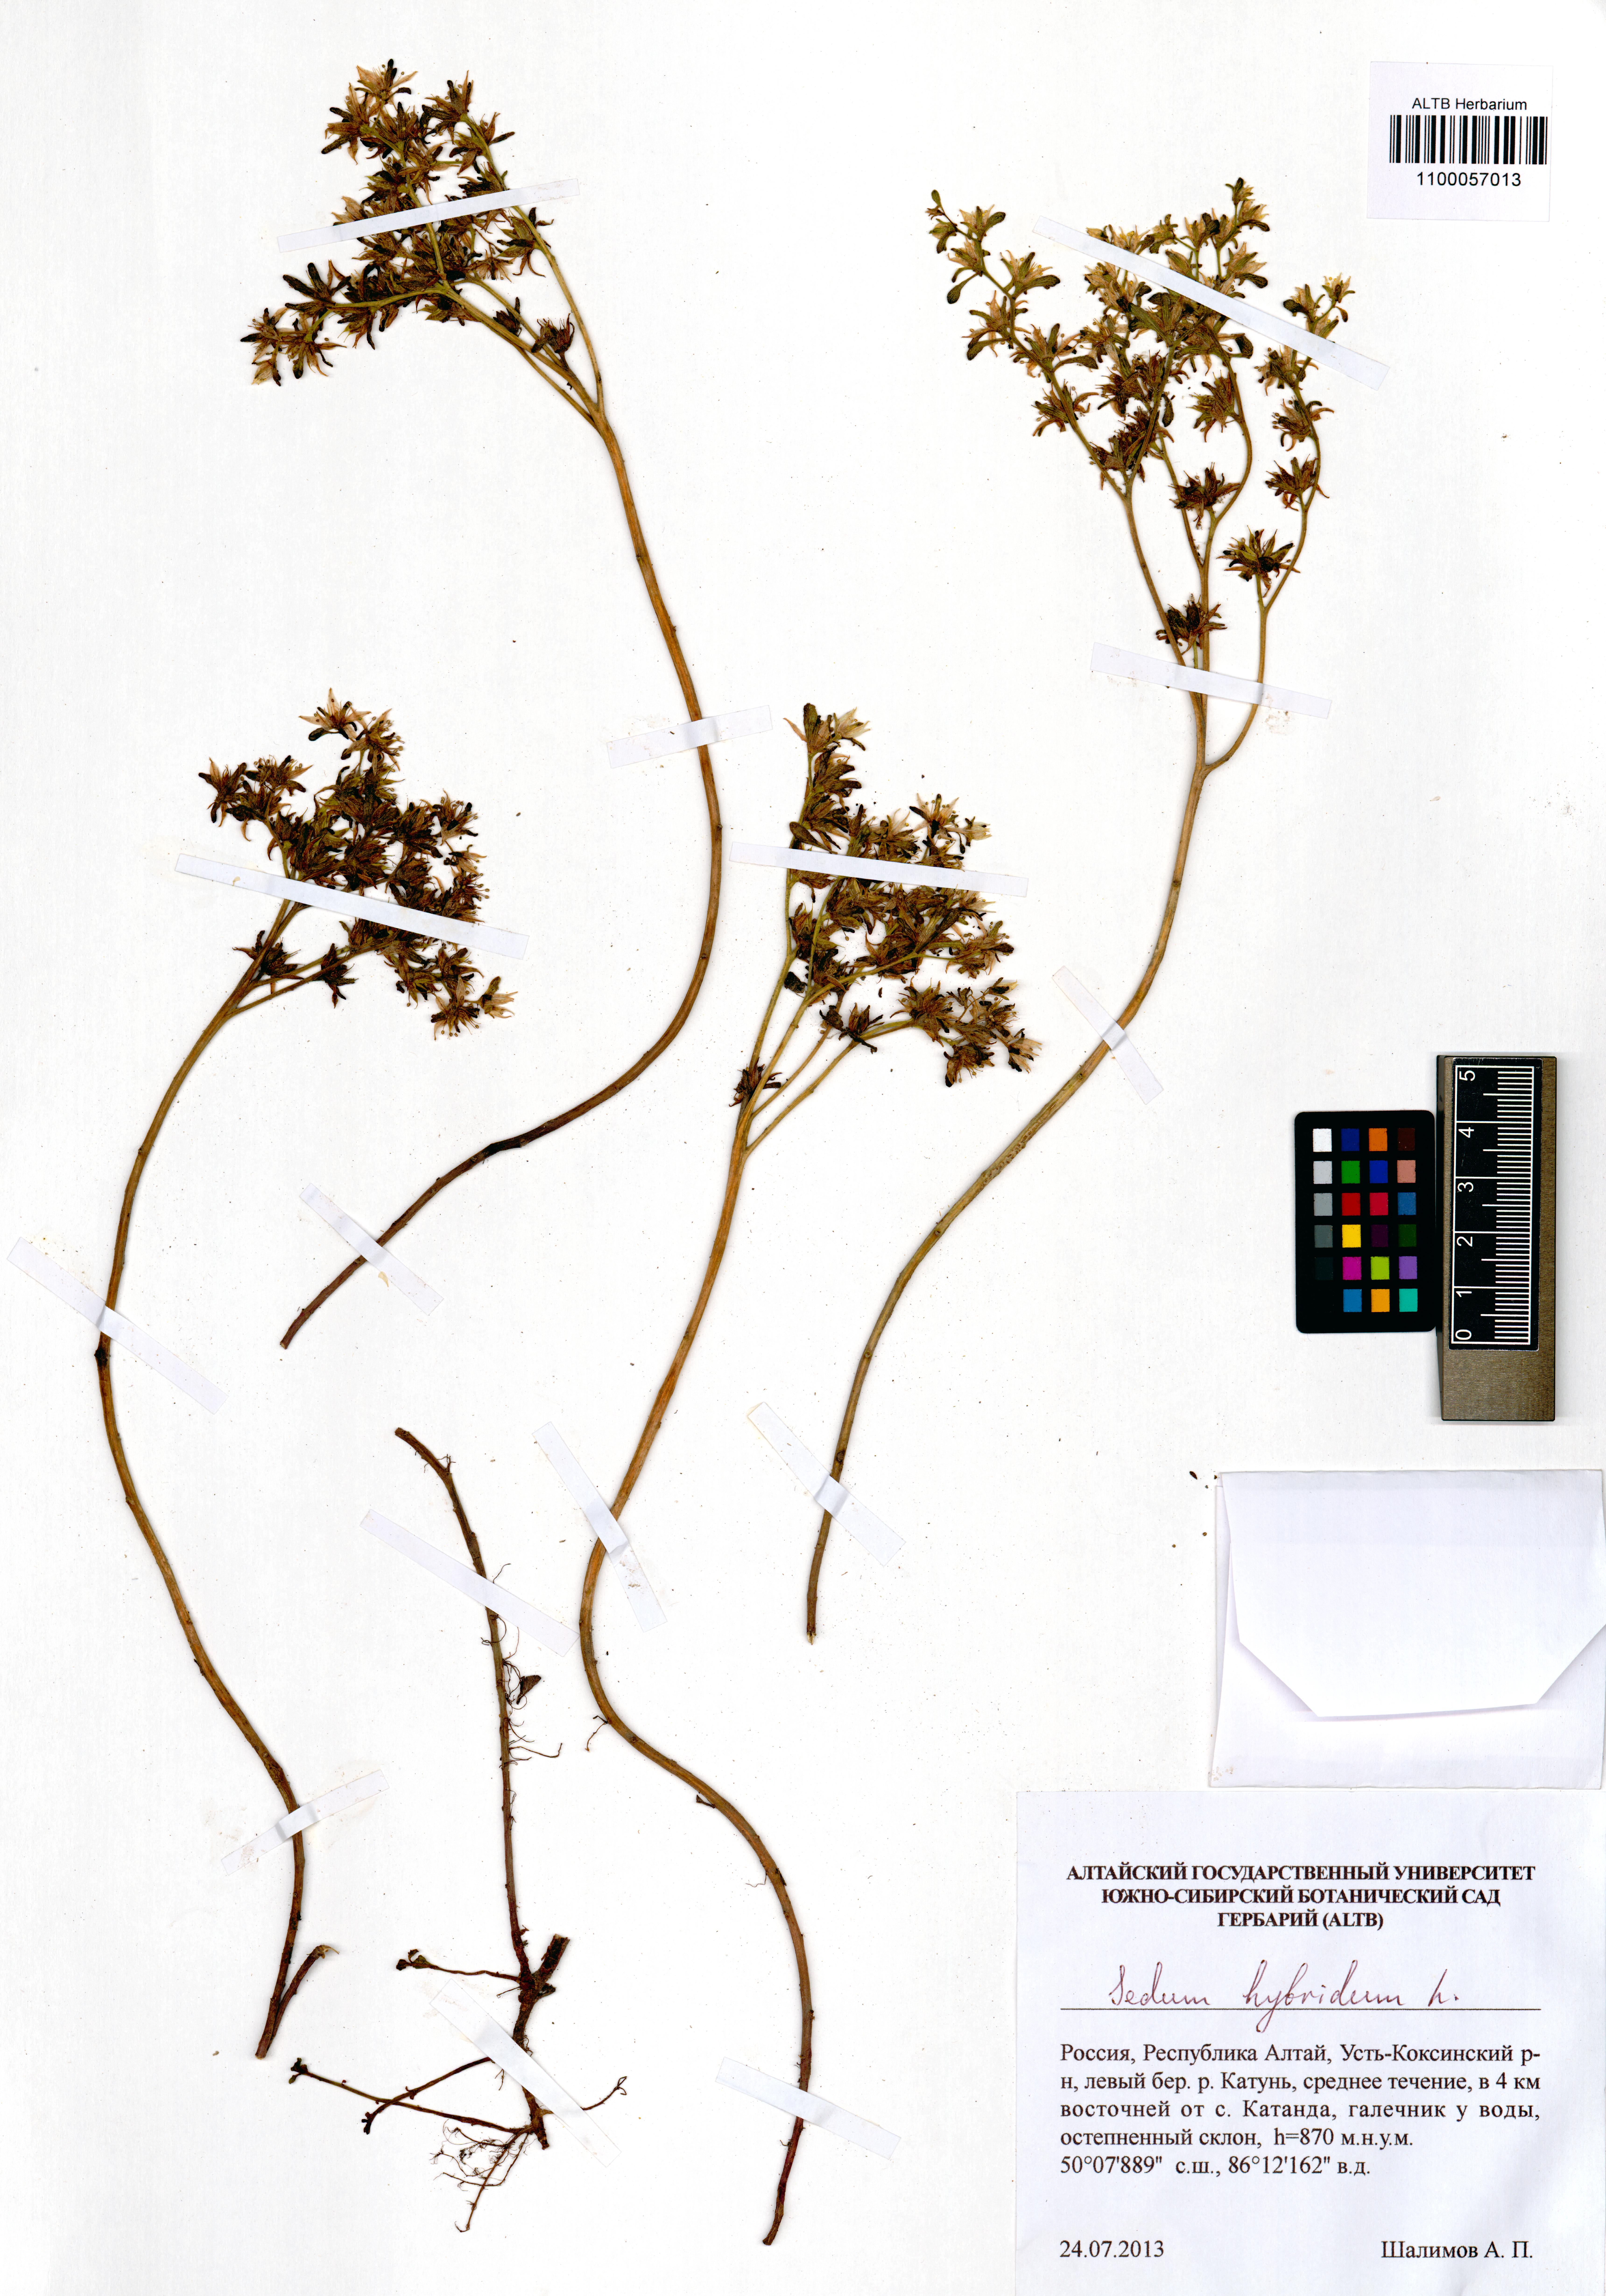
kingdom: Plantae
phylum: Tracheophyta
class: Magnoliopsida
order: Saxifragales
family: Crassulaceae
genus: Phedimus
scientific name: Phedimus hybridus
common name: Hybrid stonecrop
